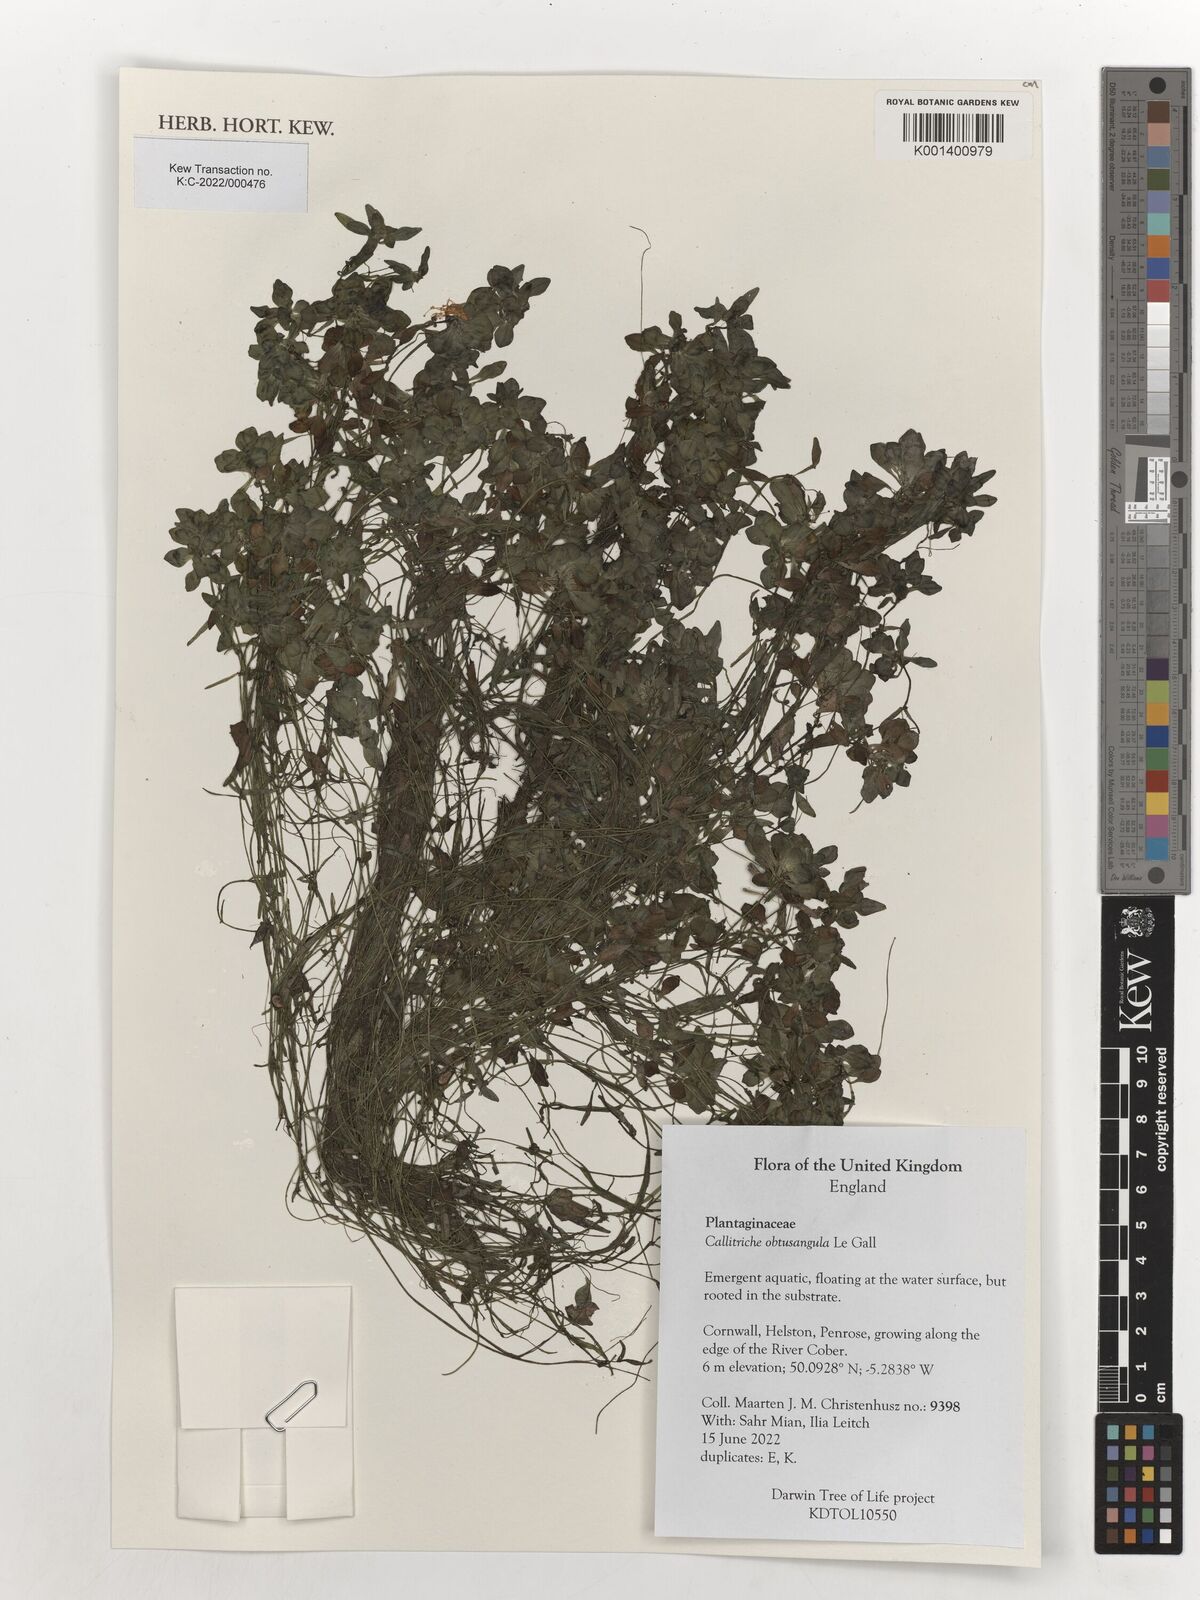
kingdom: Plantae
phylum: Tracheophyta
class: Magnoliopsida
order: Lamiales
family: Plantaginaceae
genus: Callitriche
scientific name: Callitriche obtusangula
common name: Blunt-fruited water-starwort
